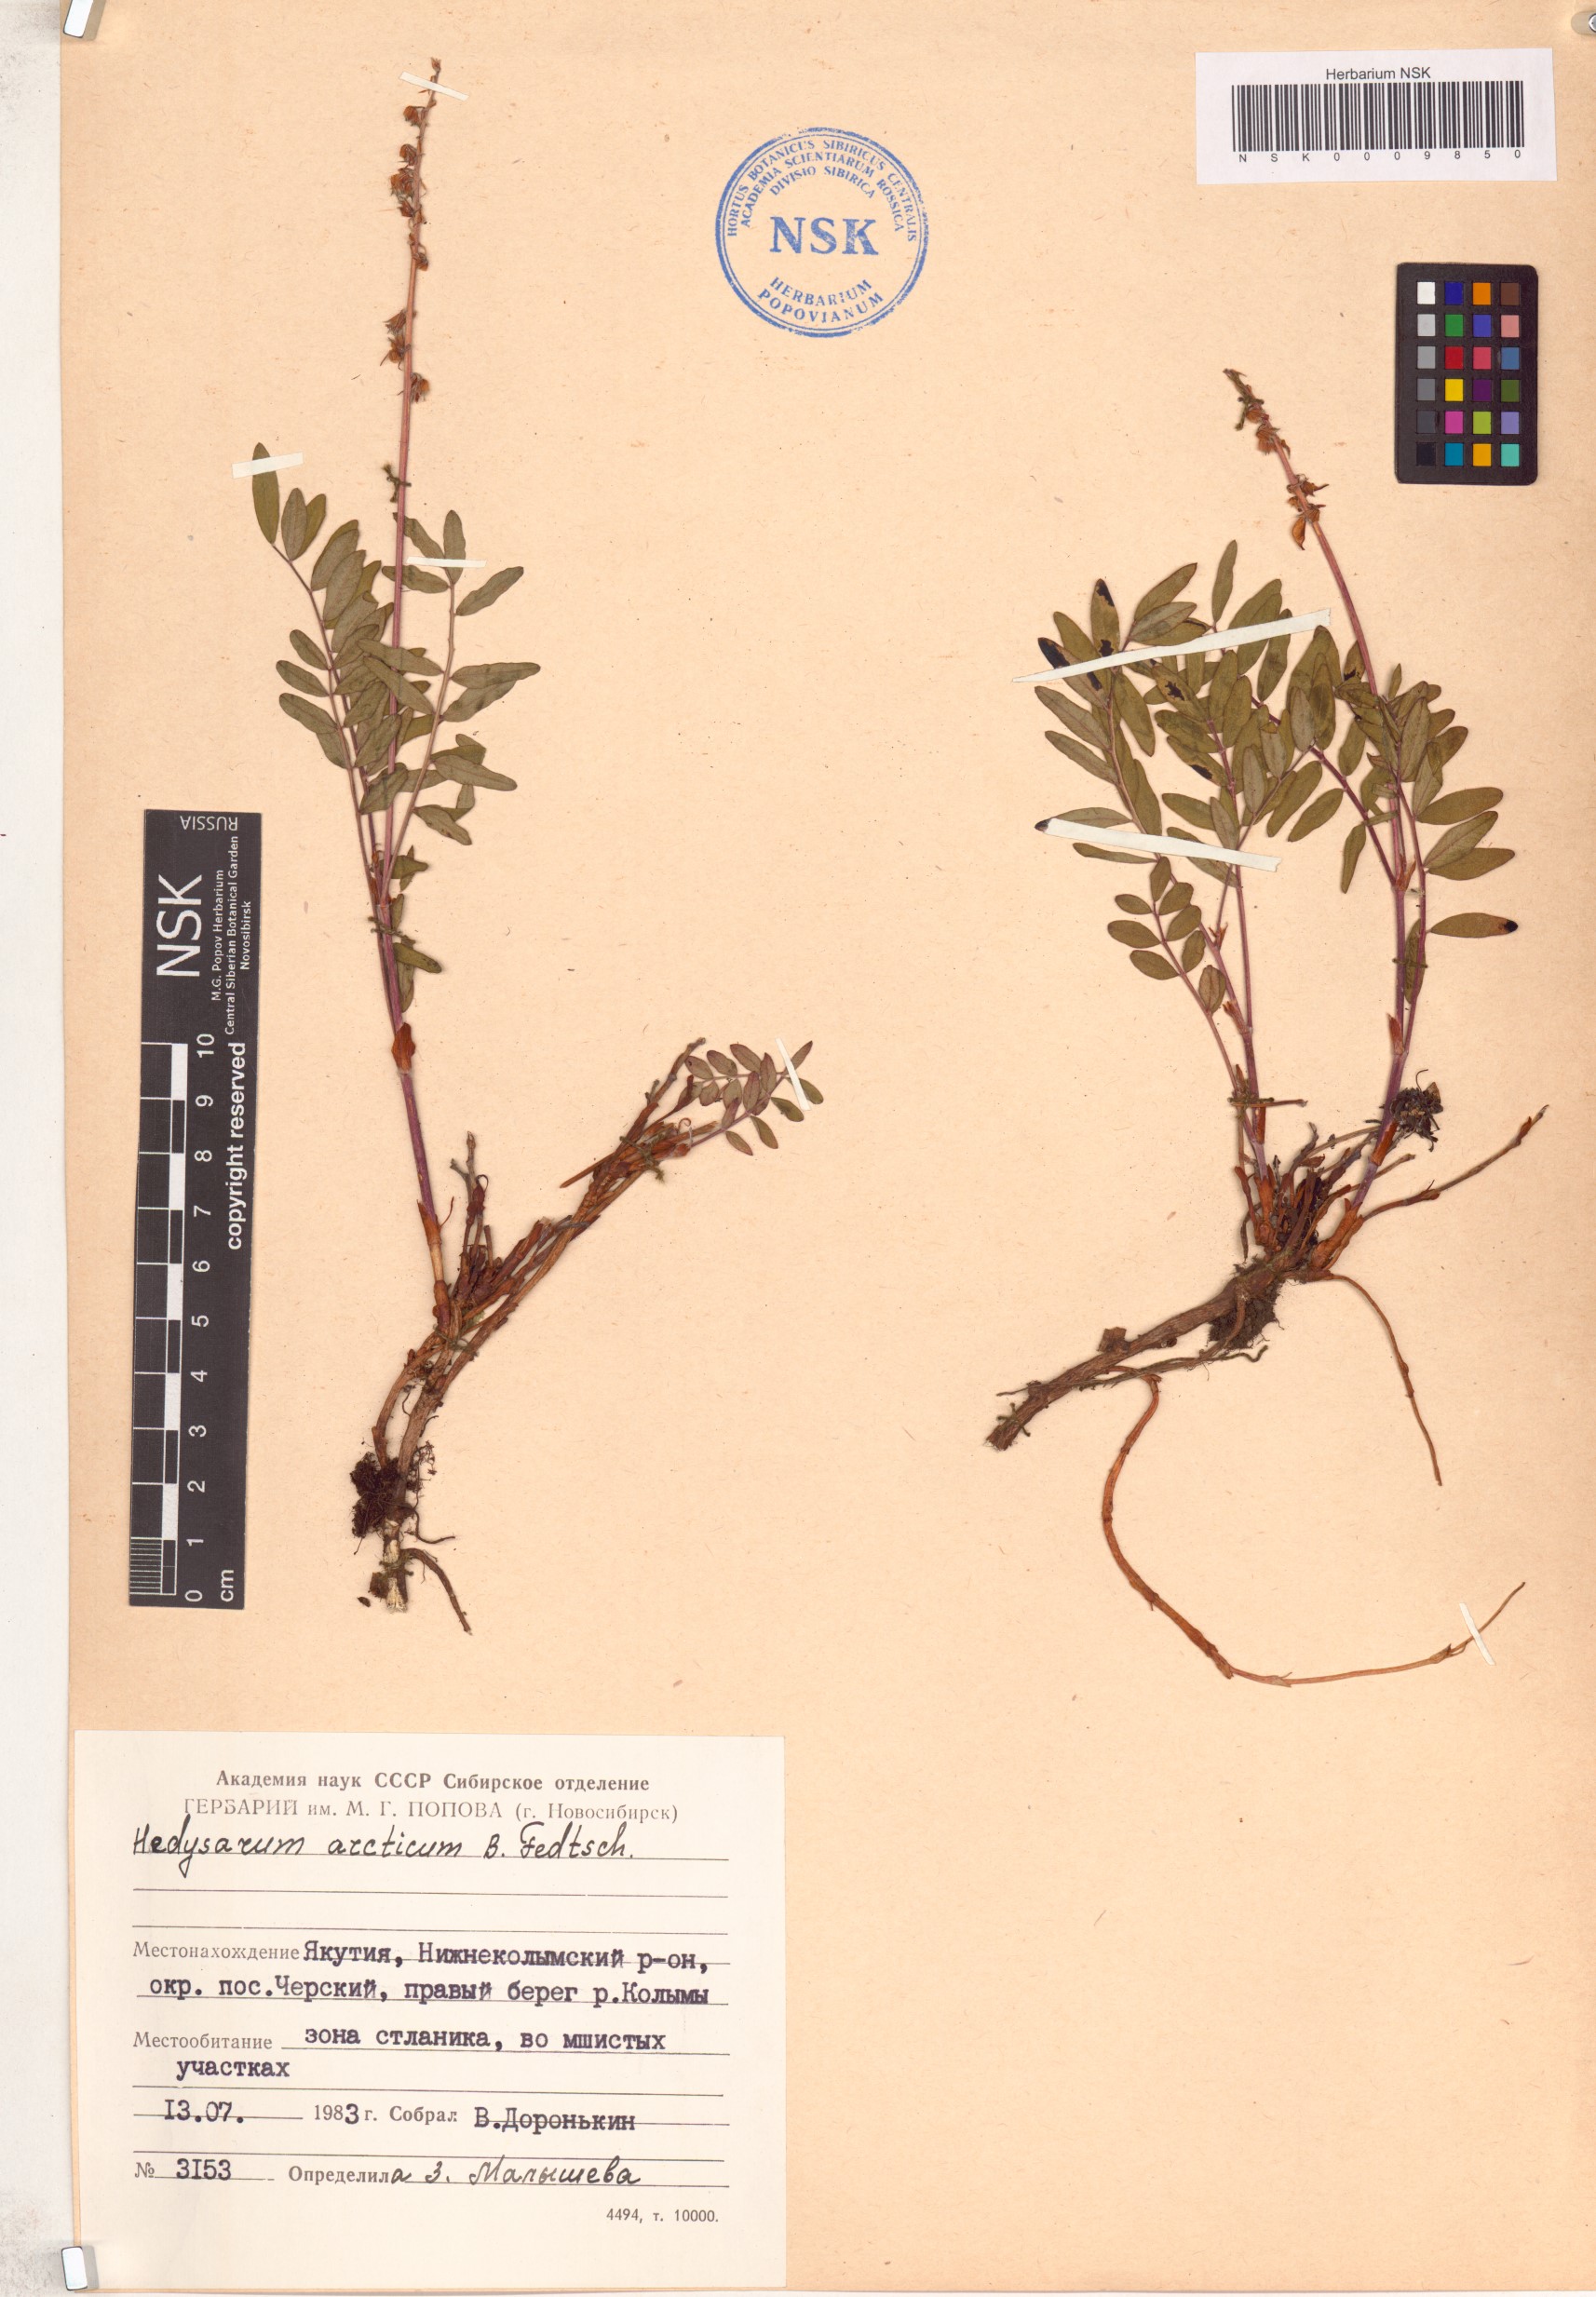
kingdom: Plantae
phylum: Tracheophyta
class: Magnoliopsida
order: Fabales
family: Fabaceae
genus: Hedysarum
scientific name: Hedysarum hedysaroides
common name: Alpine french-honeysuckle
